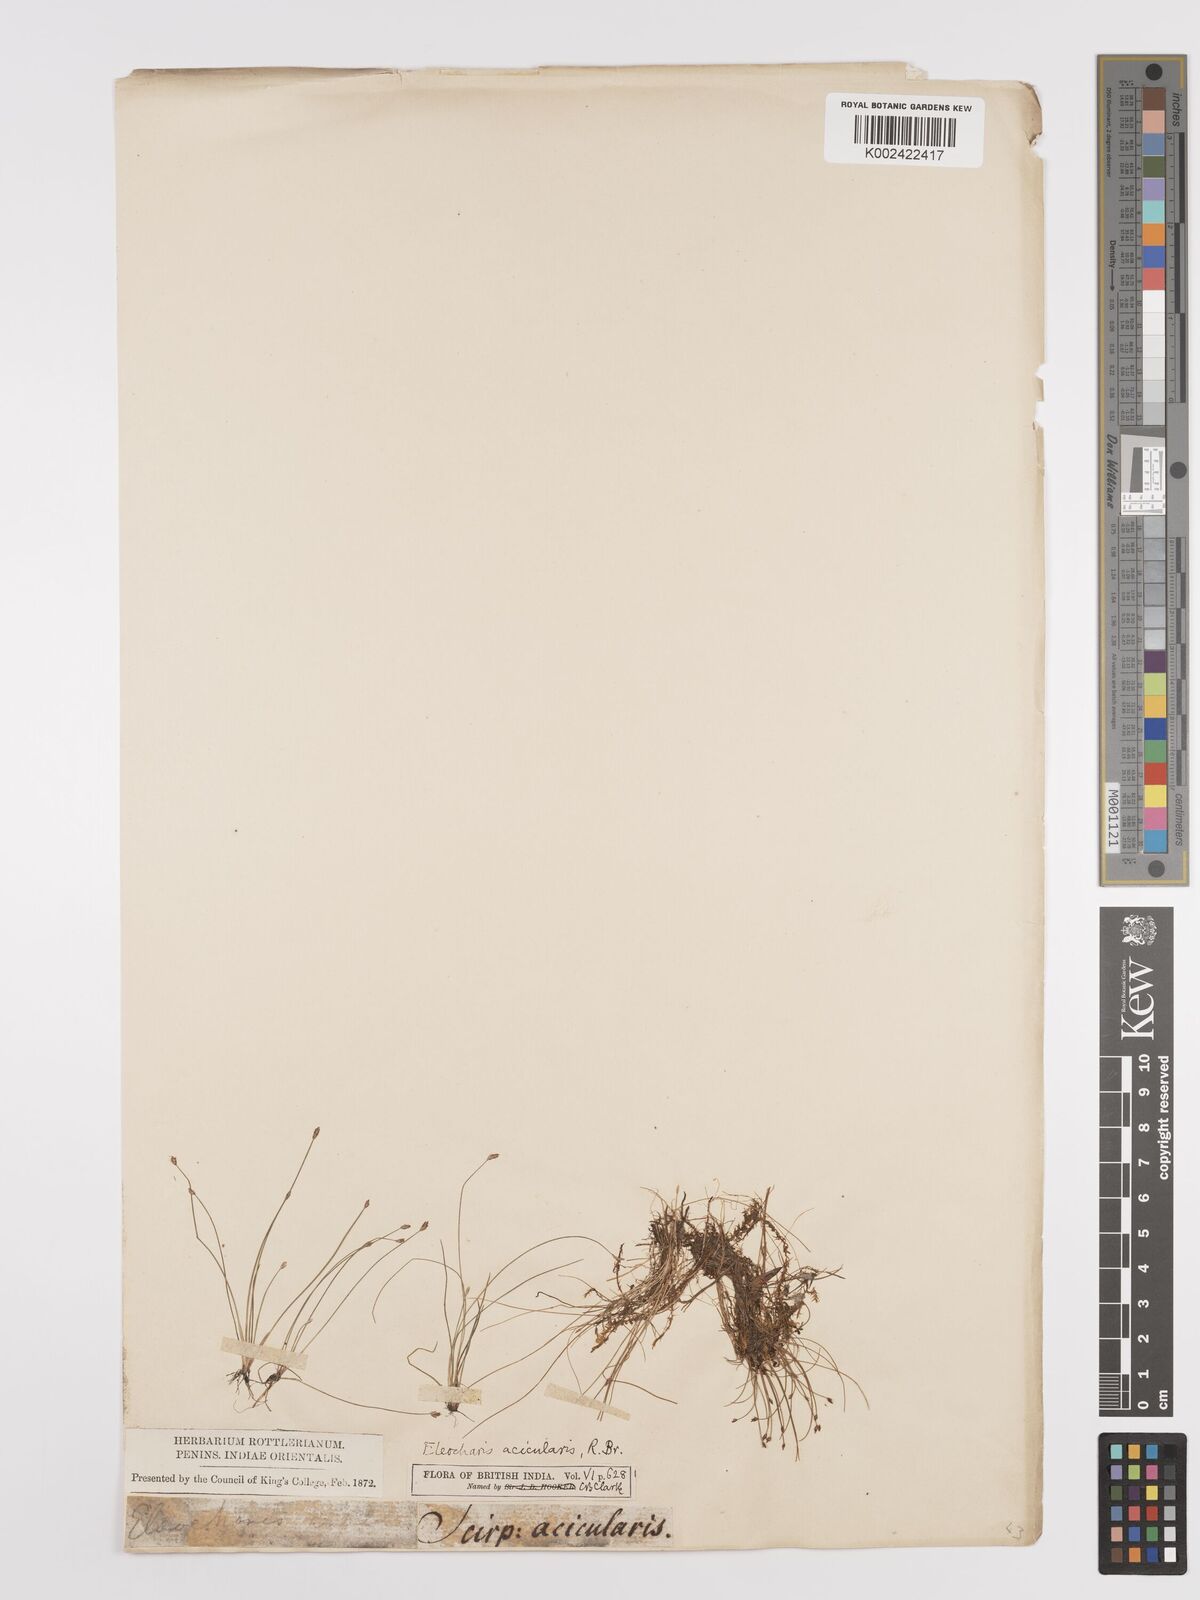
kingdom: Plantae
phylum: Tracheophyta
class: Liliopsida
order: Poales
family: Cyperaceae
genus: Eleocharis
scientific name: Eleocharis acicularis
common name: Needle spike-rush
